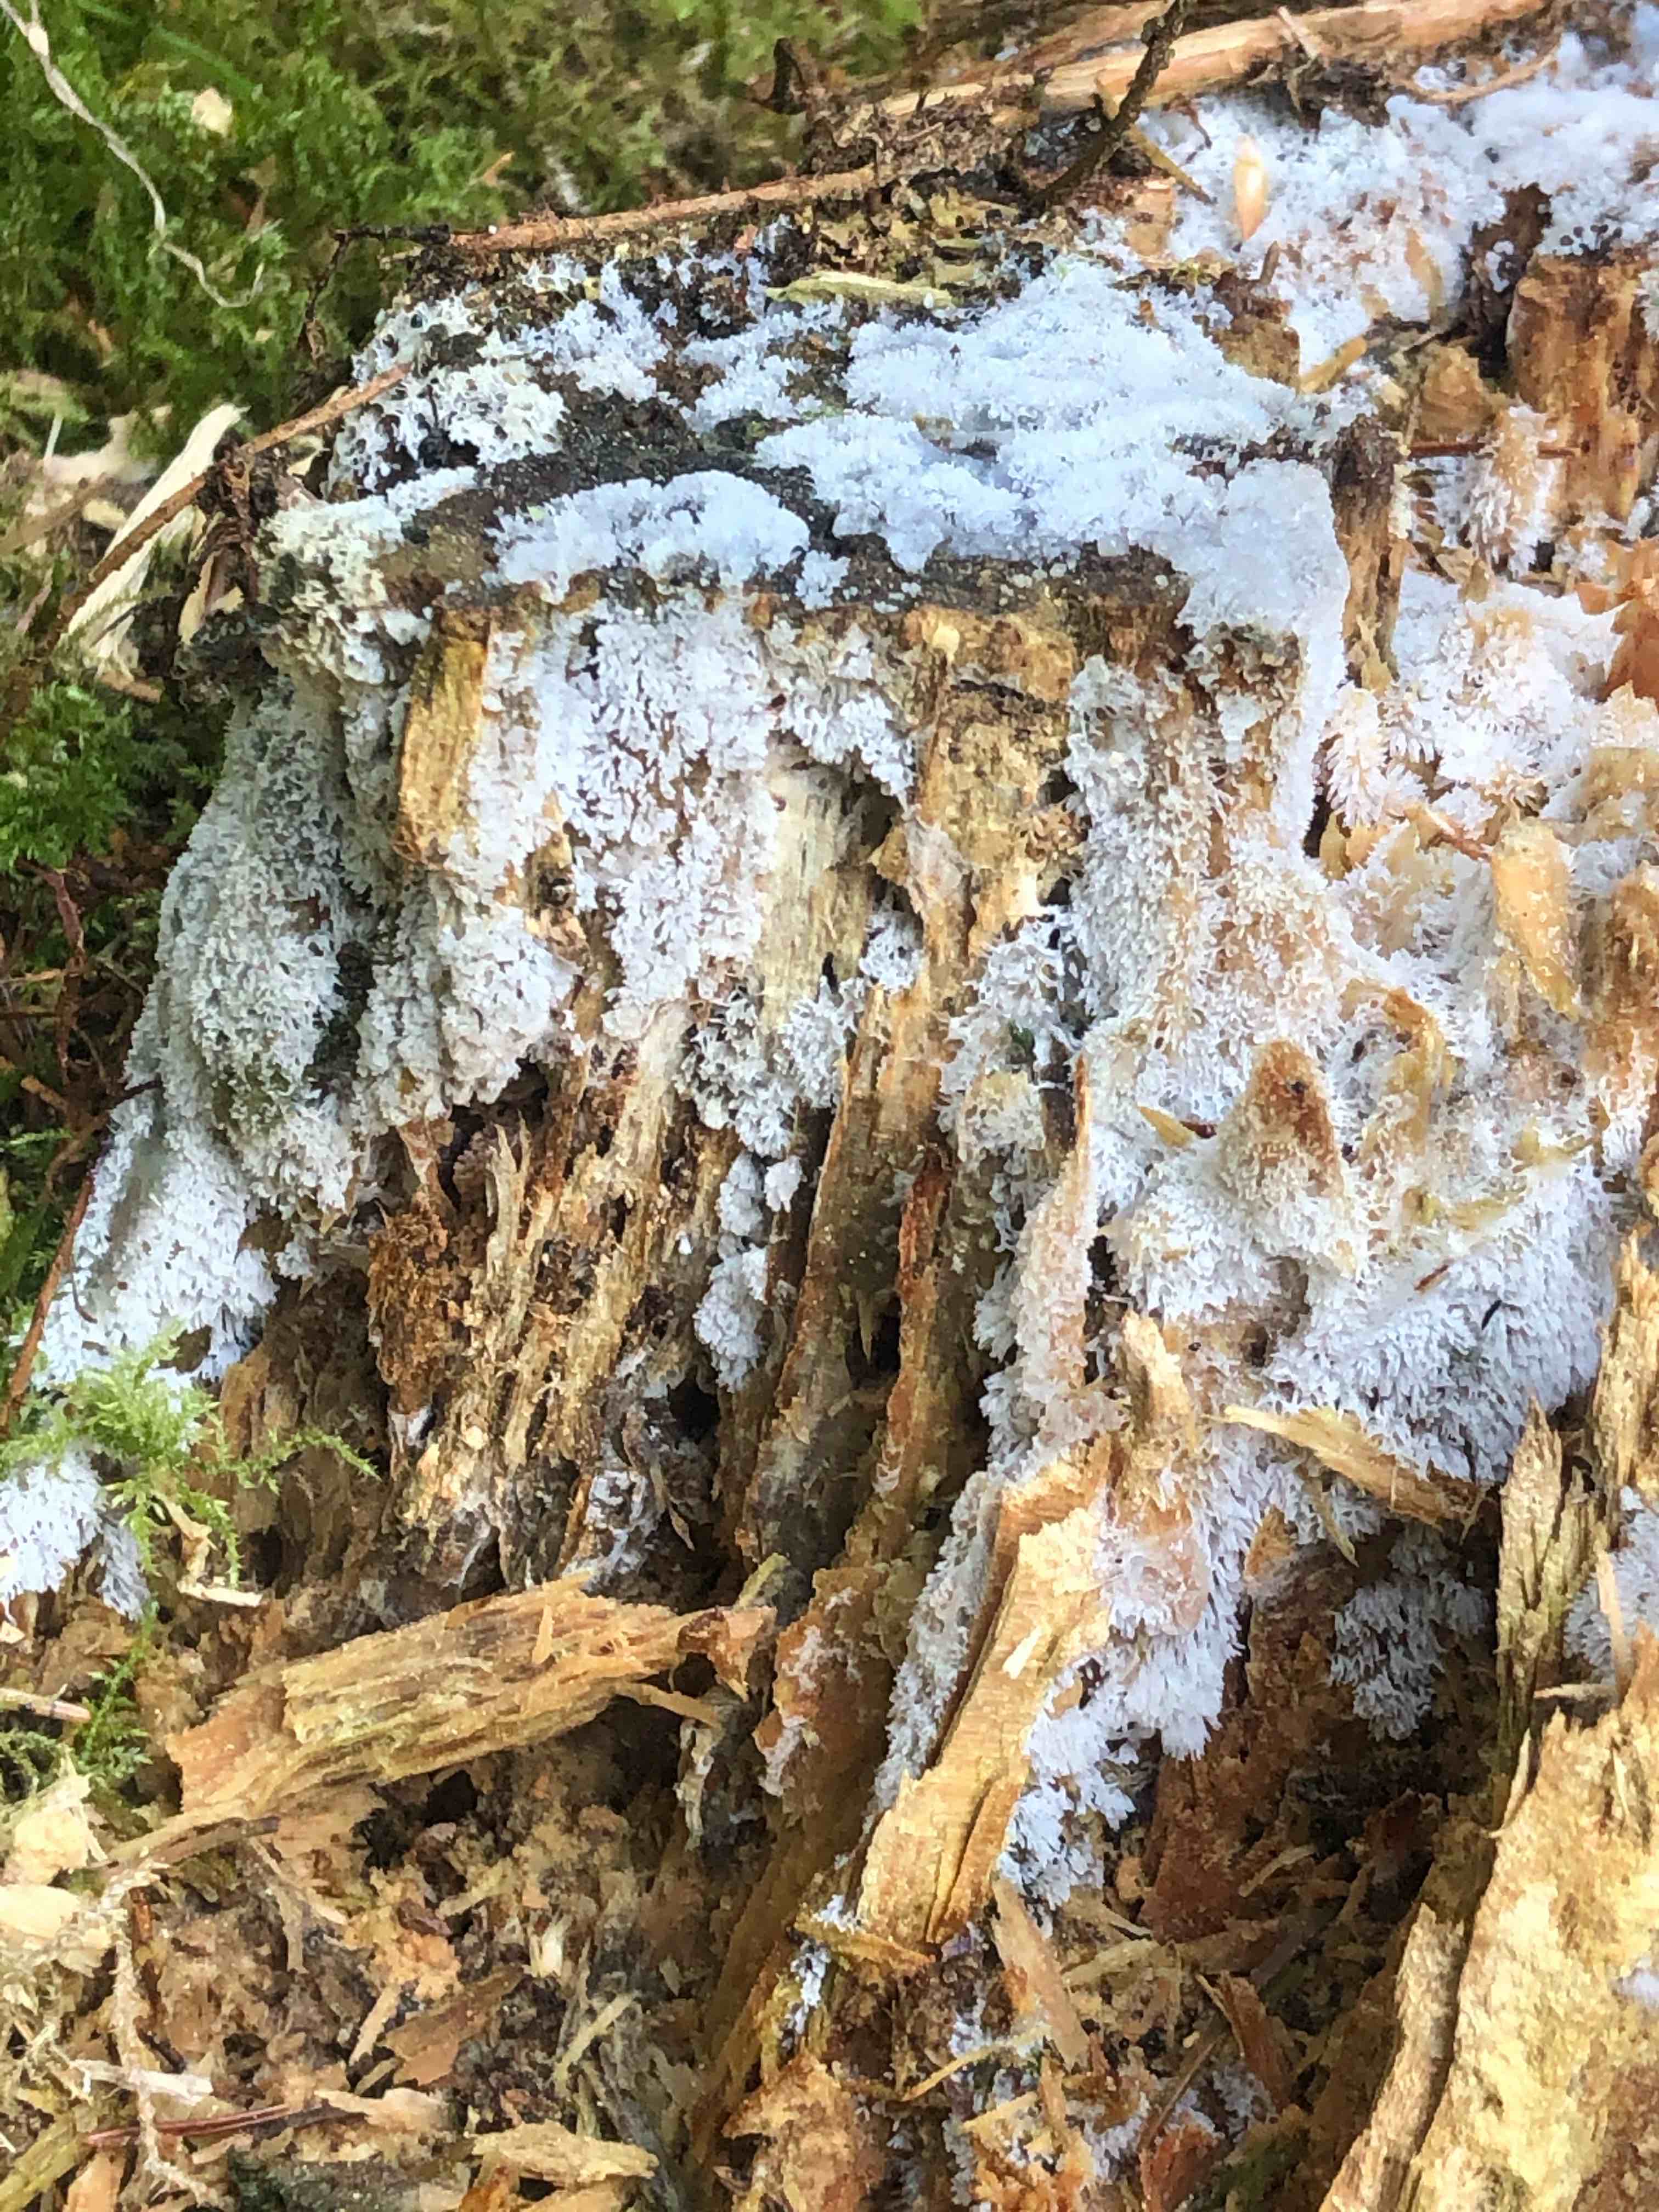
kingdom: Protozoa
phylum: Mycetozoa
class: Protosteliomycetes
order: Ceratiomyxales
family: Ceratiomyxaceae
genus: Ceratiomyxa
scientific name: Ceratiomyxa fruticulosa
